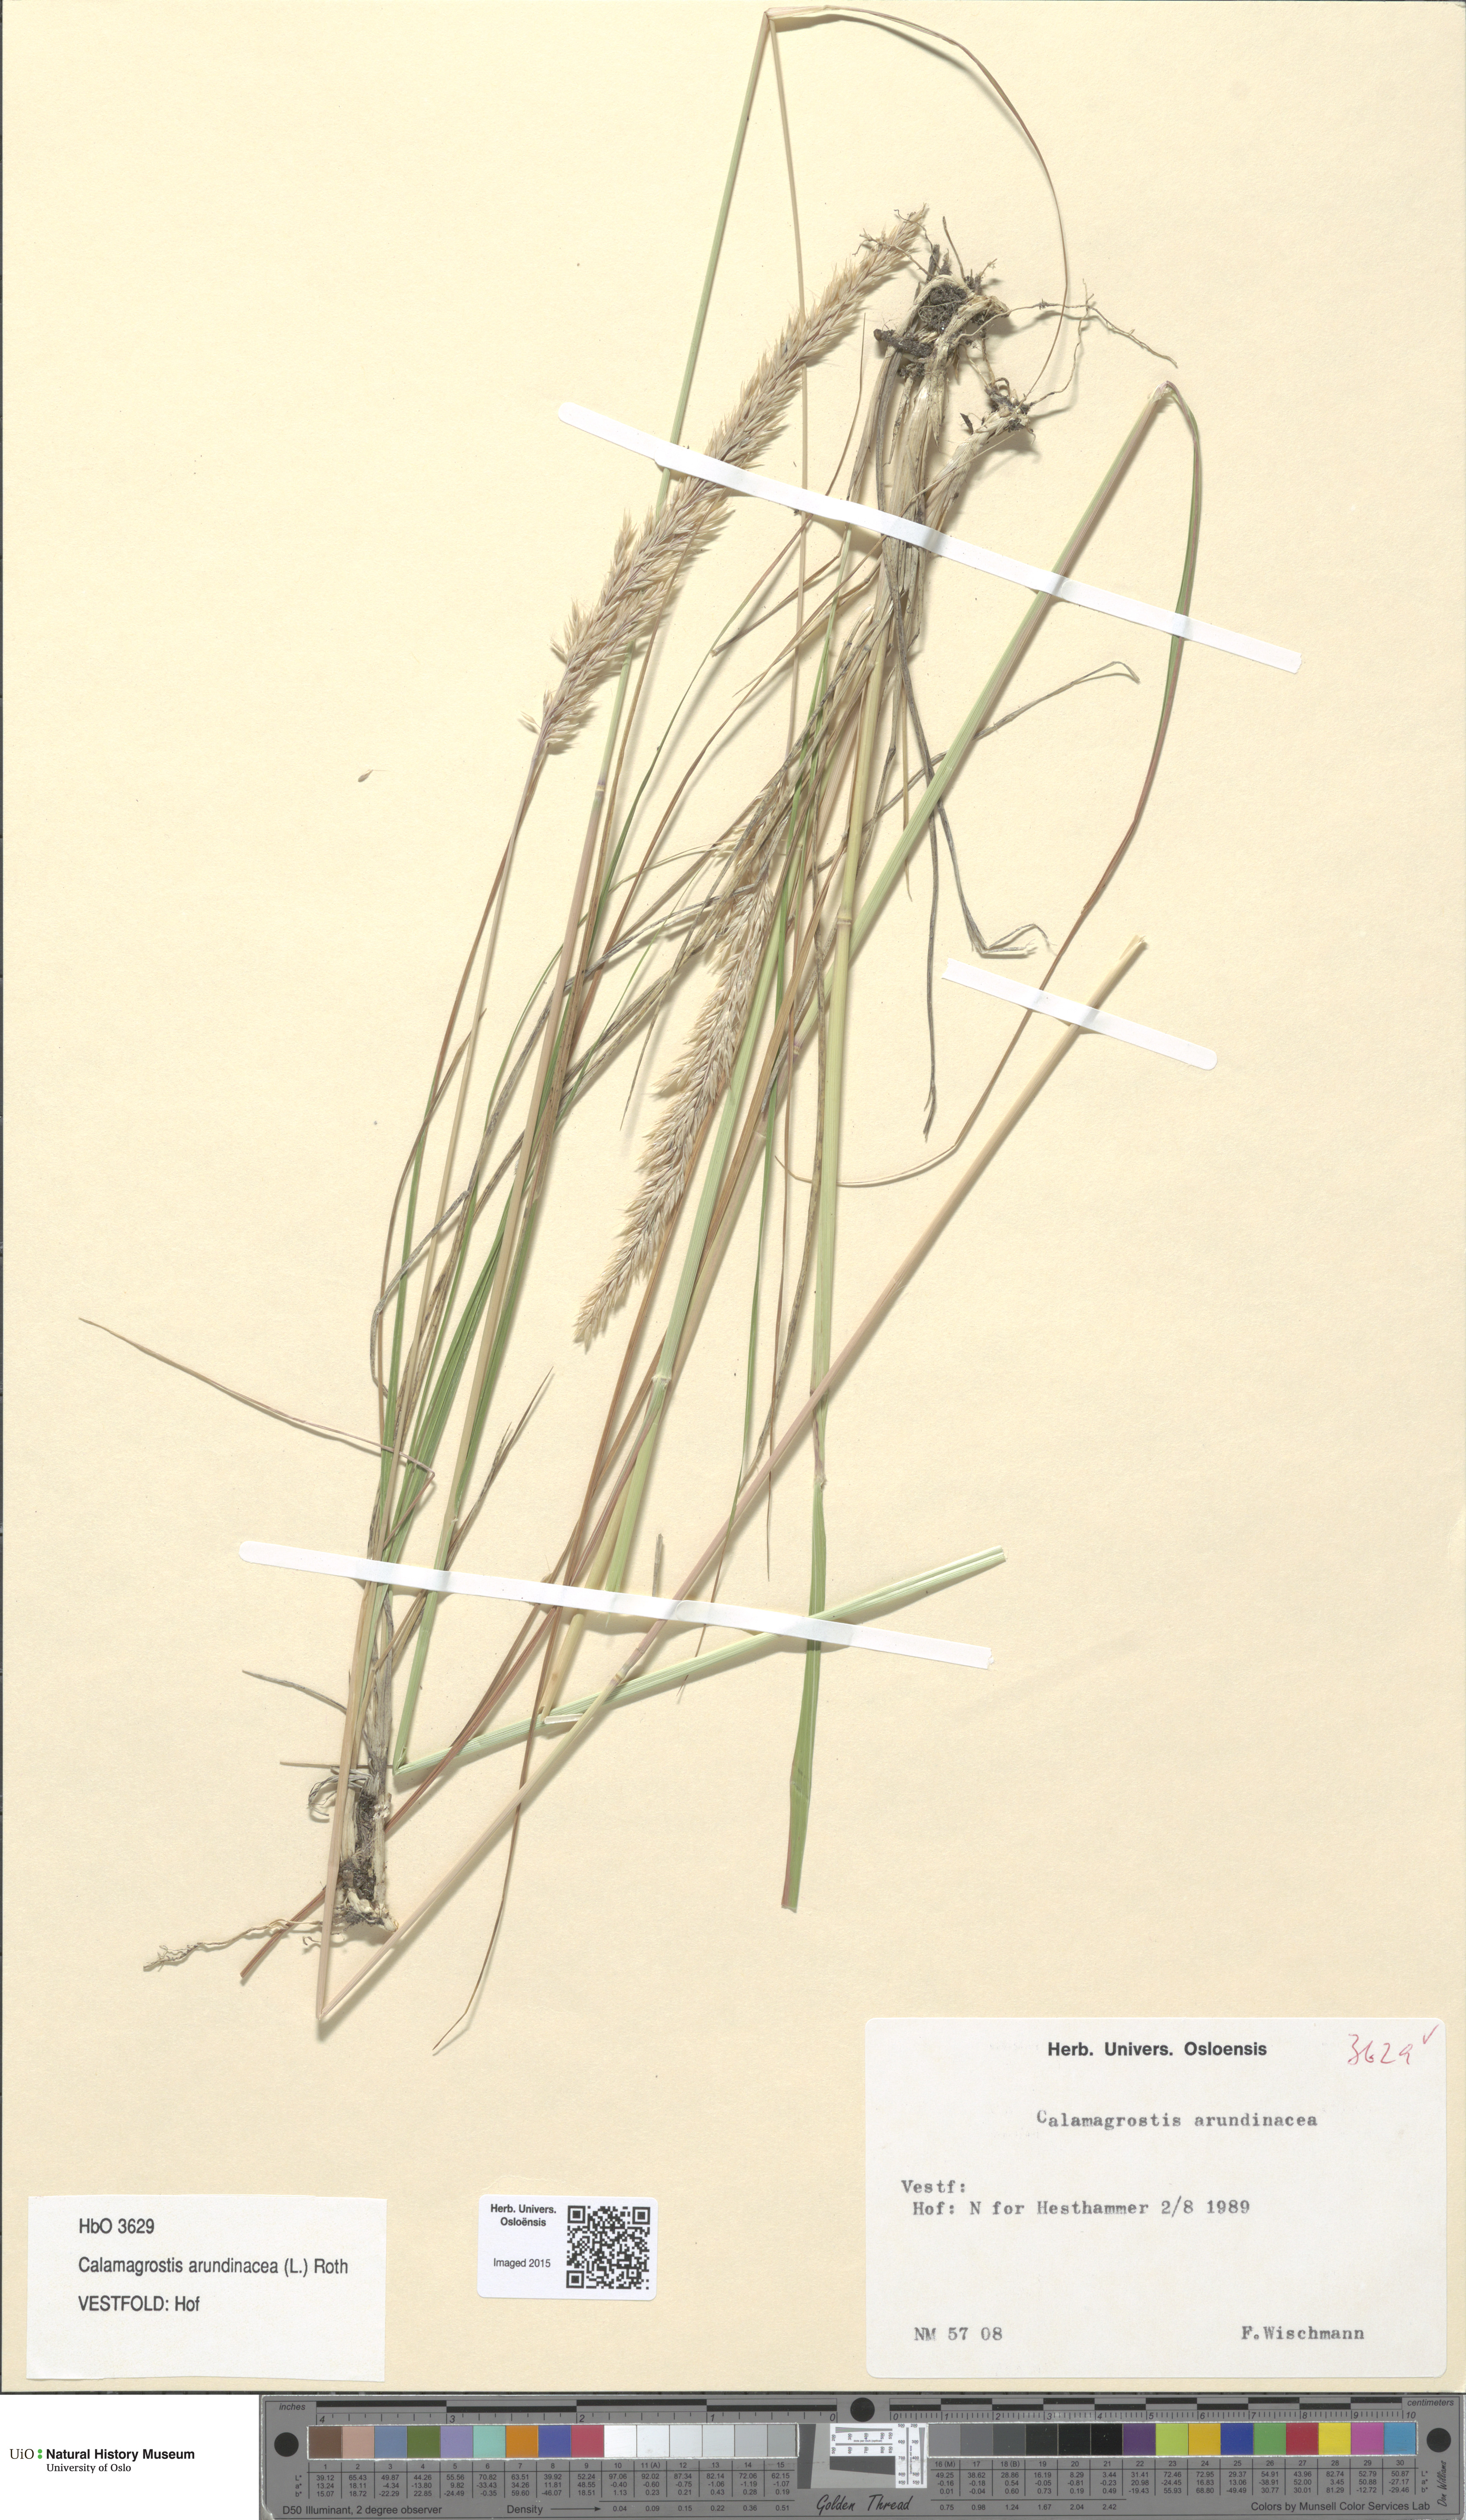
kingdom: Plantae
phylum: Tracheophyta
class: Liliopsida
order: Poales
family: Poaceae
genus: Calamagrostis
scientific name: Calamagrostis arundinacea
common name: Metskastik
